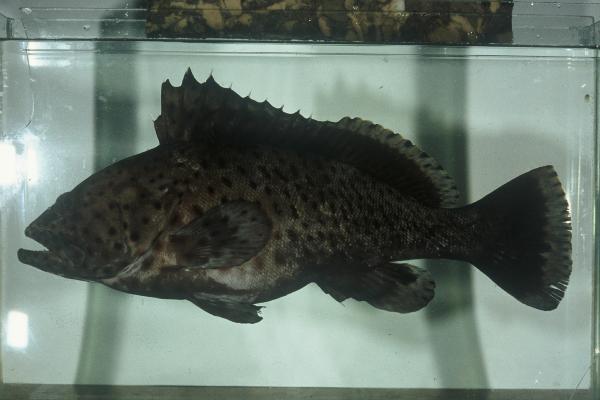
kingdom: Animalia
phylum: Chordata
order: Perciformes
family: Serranidae
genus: Epinephelus
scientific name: Epinephelus longispinis
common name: Longspine grouper
